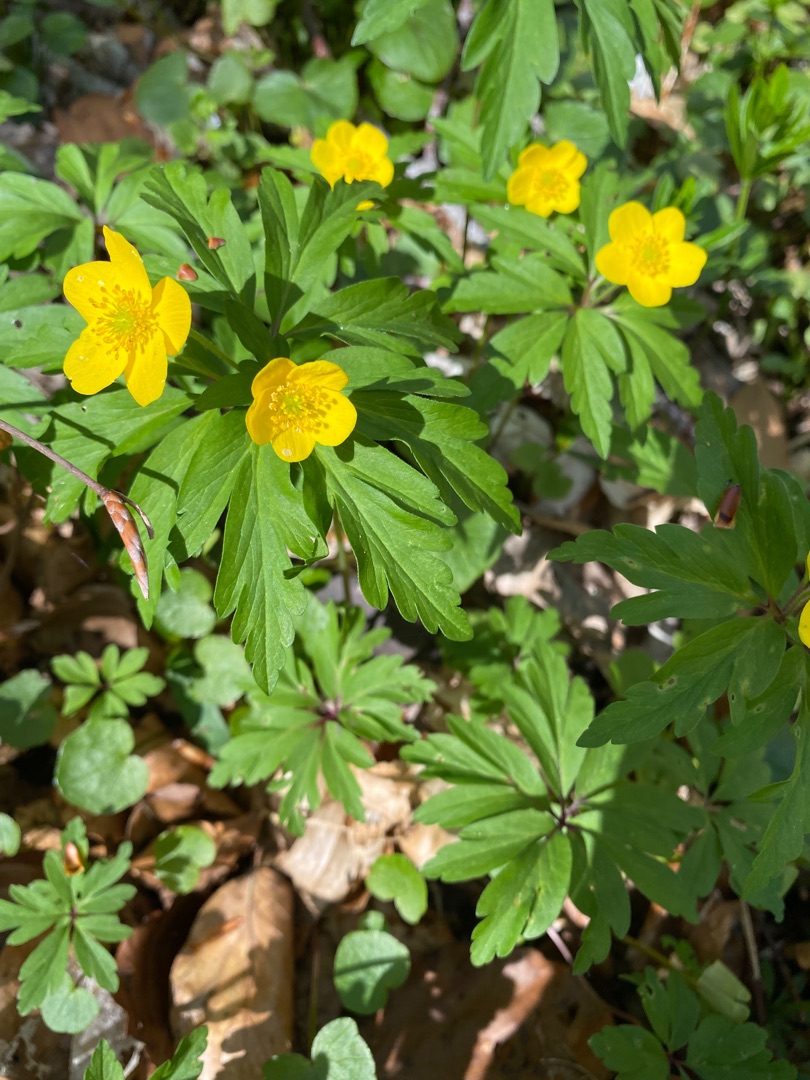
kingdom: Plantae
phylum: Tracheophyta
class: Magnoliopsida
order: Ranunculales
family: Ranunculaceae
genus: Anemone
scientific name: Anemone ranunculoides
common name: Gul anemone
